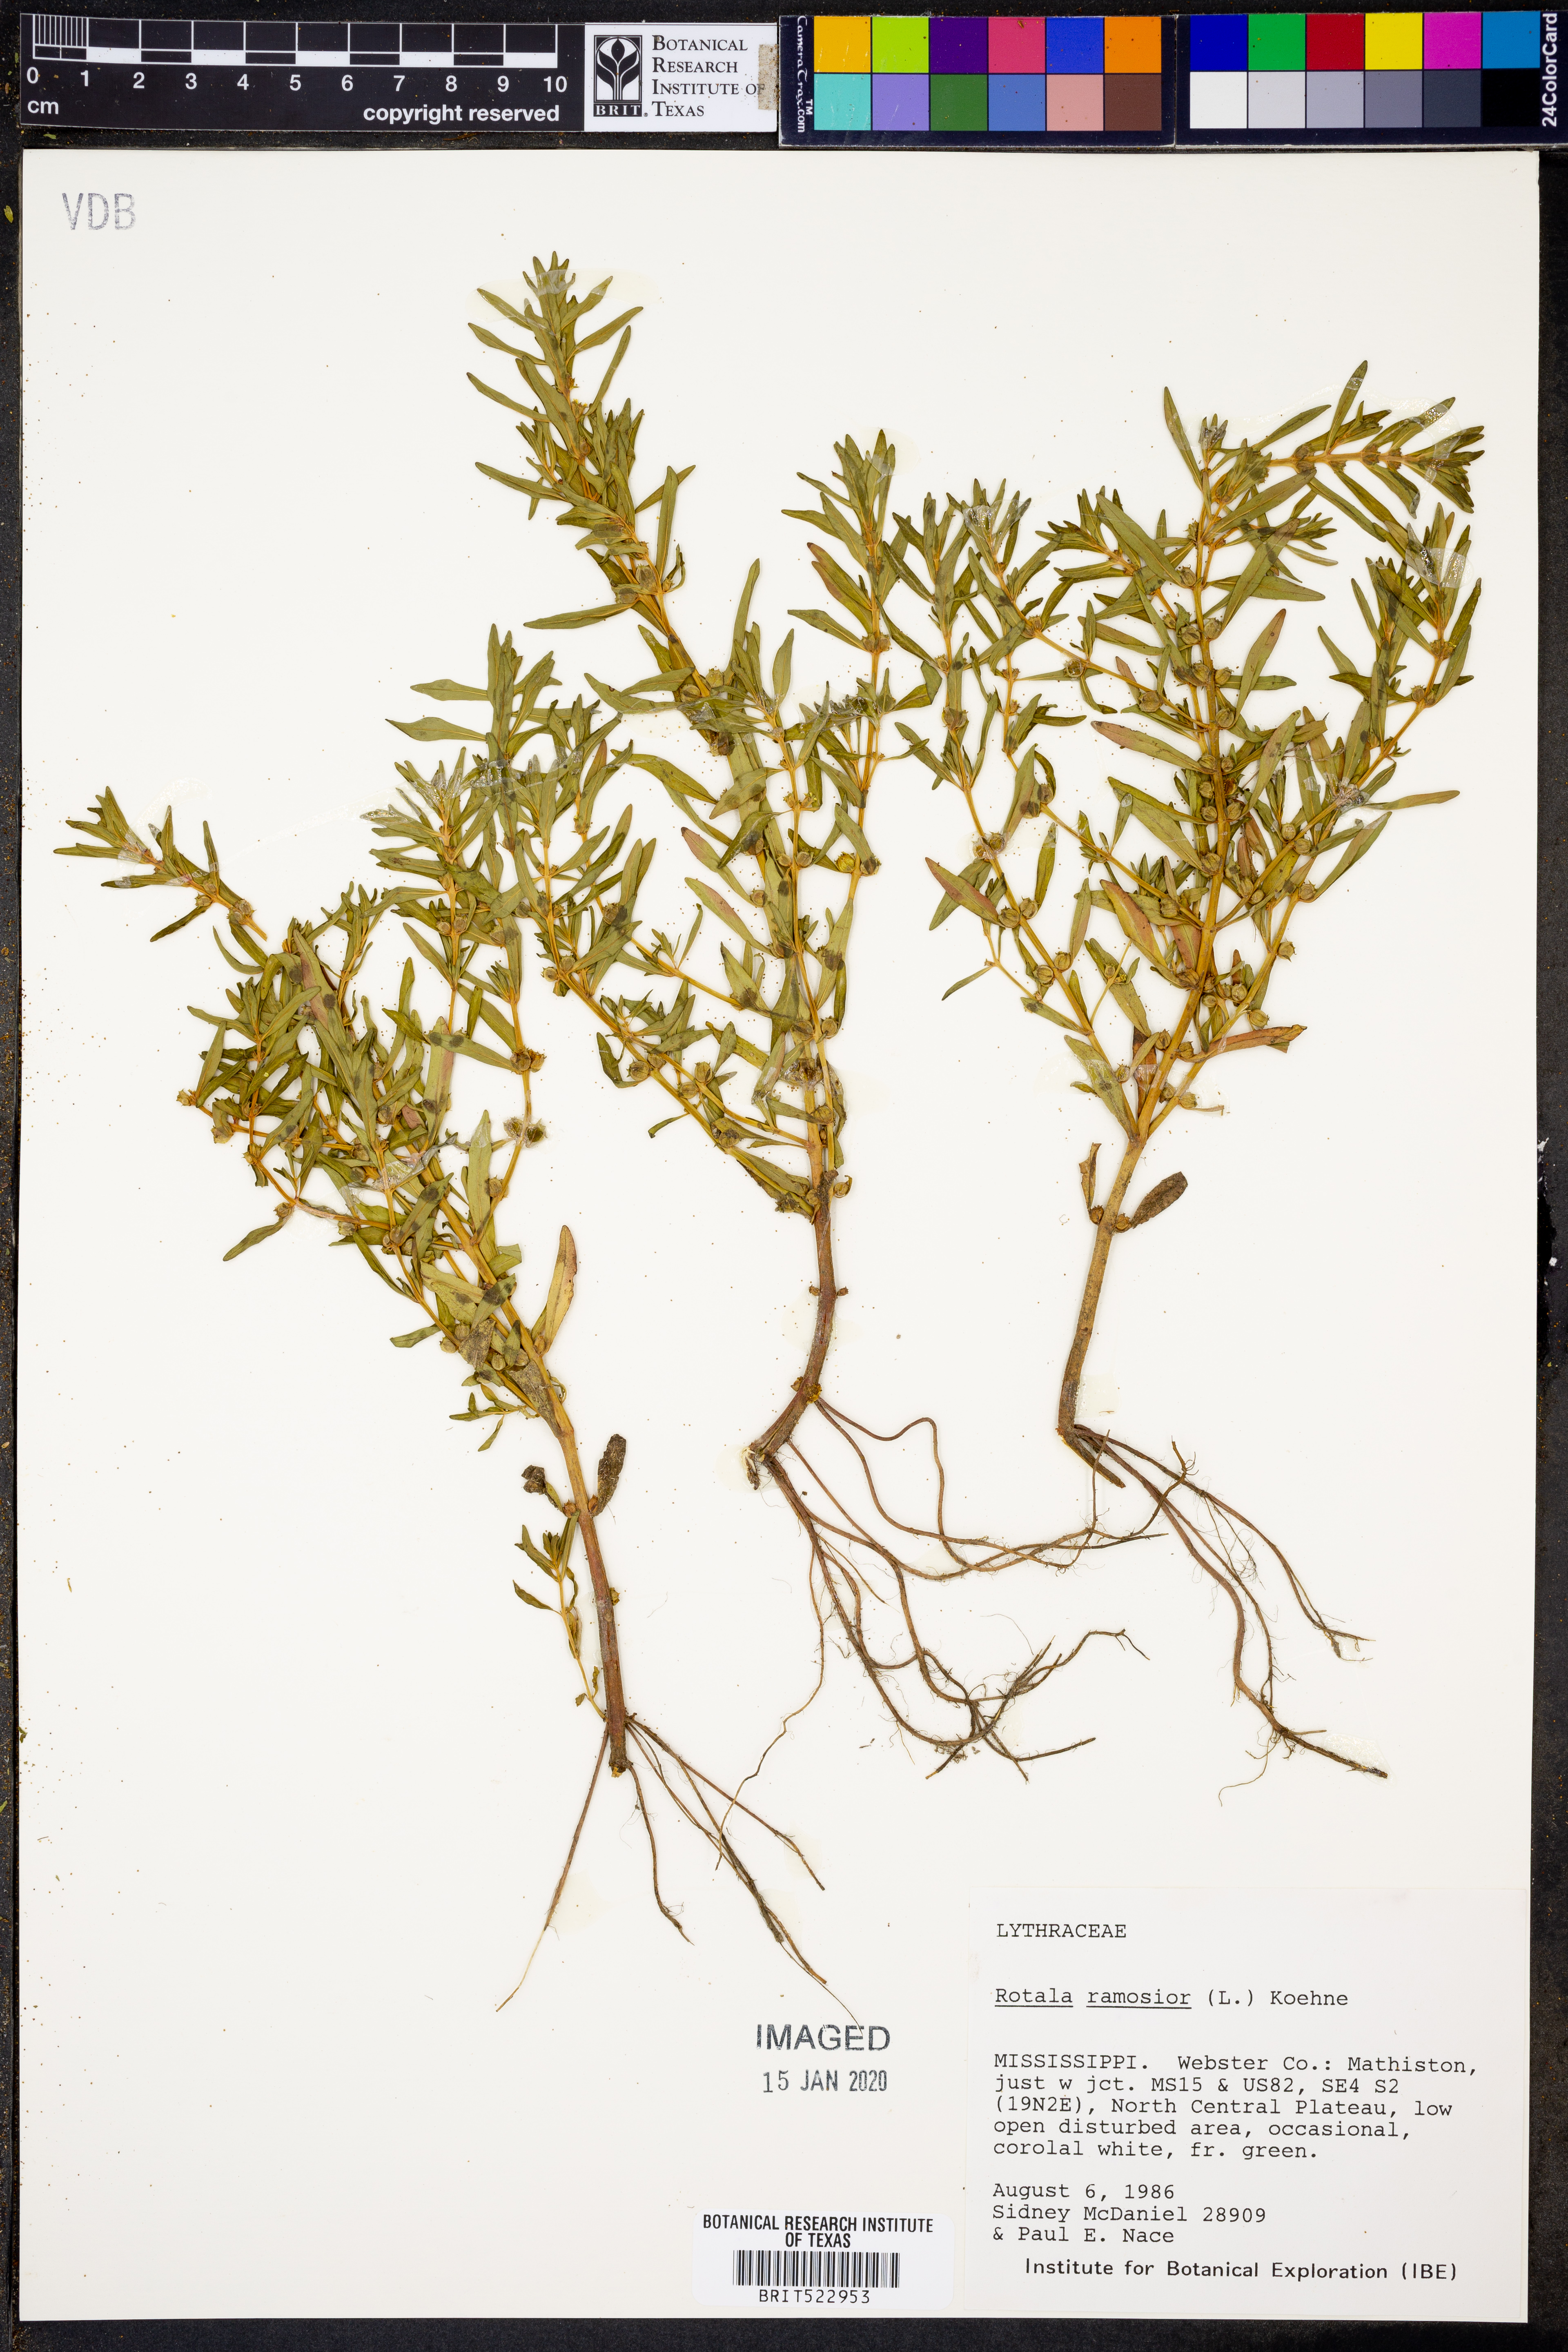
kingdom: Plantae
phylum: Tracheophyta
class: Magnoliopsida
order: Myrtales
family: Lythraceae
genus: Rotala
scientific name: Rotala ramosior
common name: Lowland rotala
